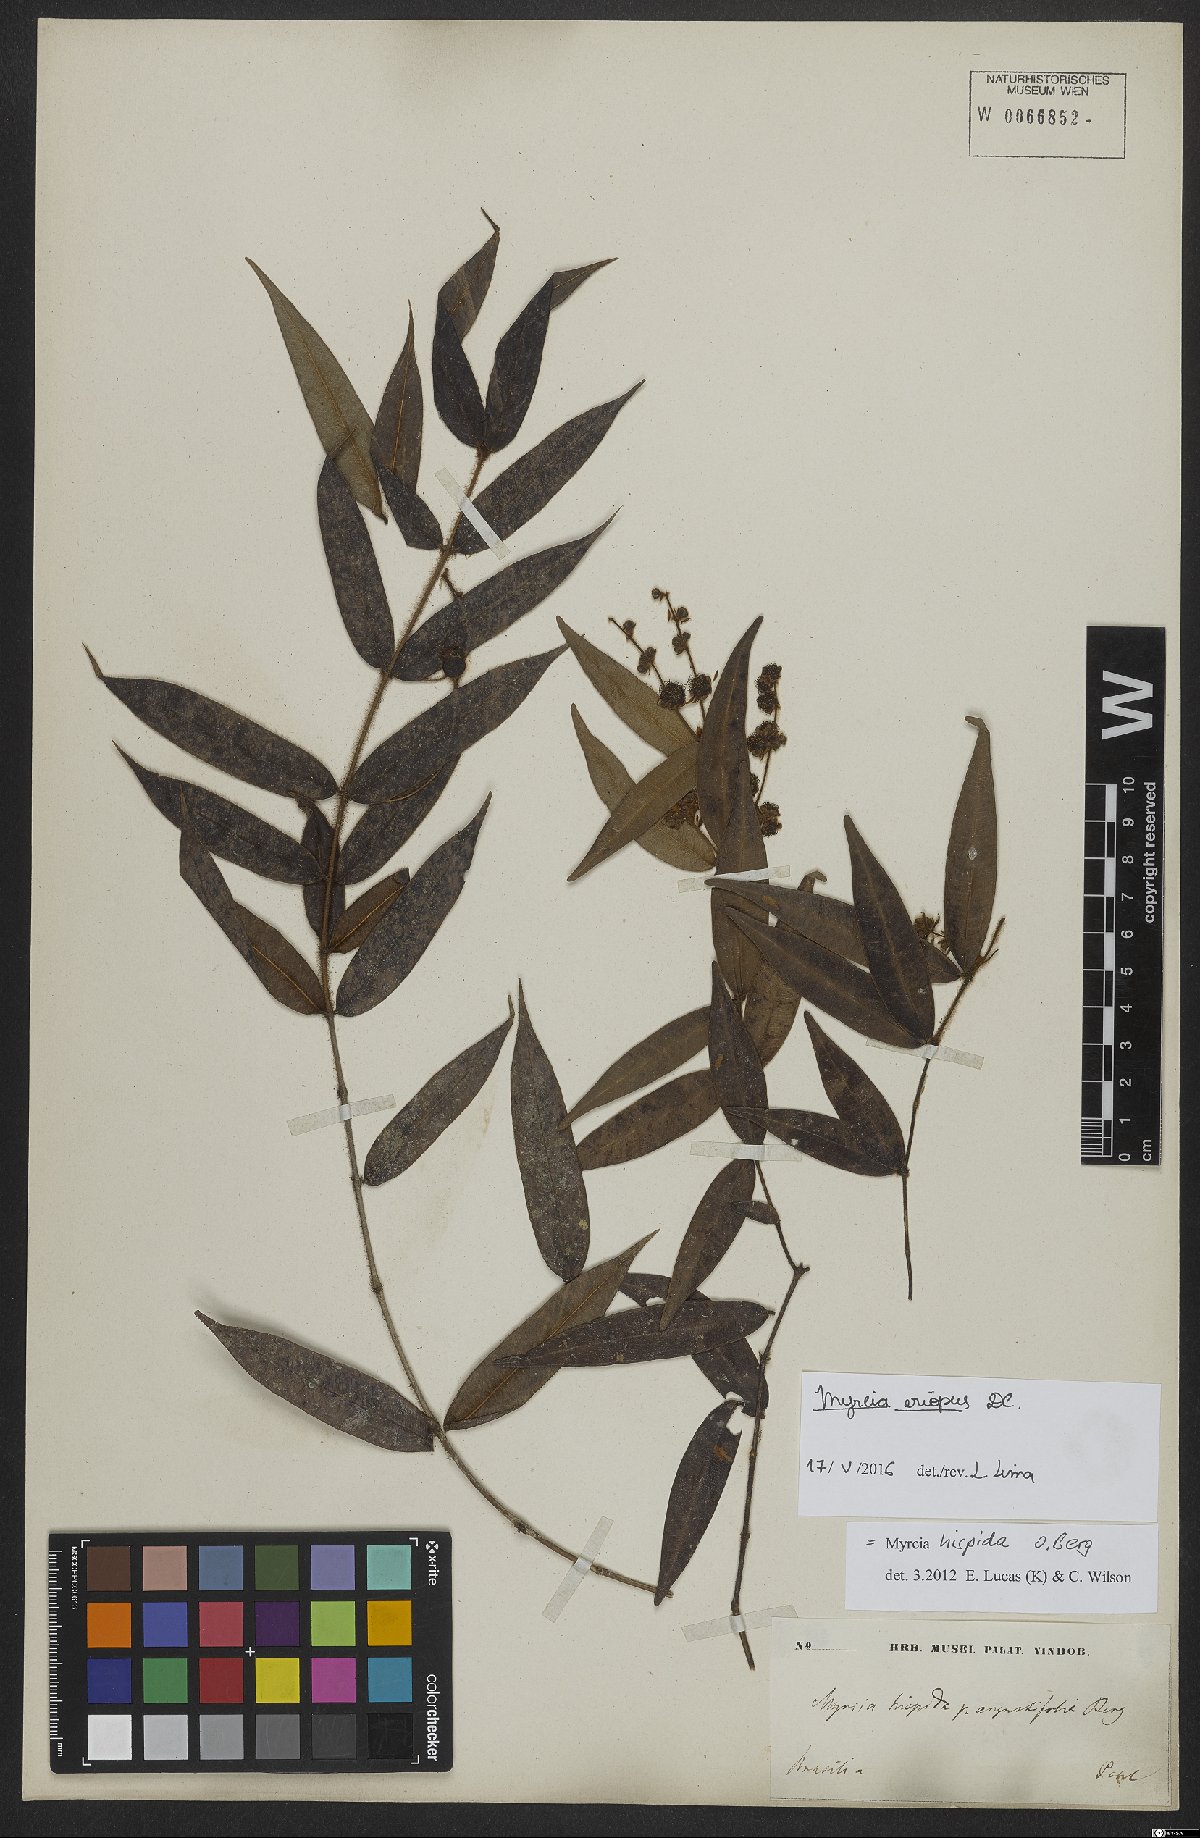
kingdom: Plantae
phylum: Tracheophyta
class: Magnoliopsida
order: Myrtales
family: Myrtaceae
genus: Myrcia
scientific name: Myrcia eriopus
